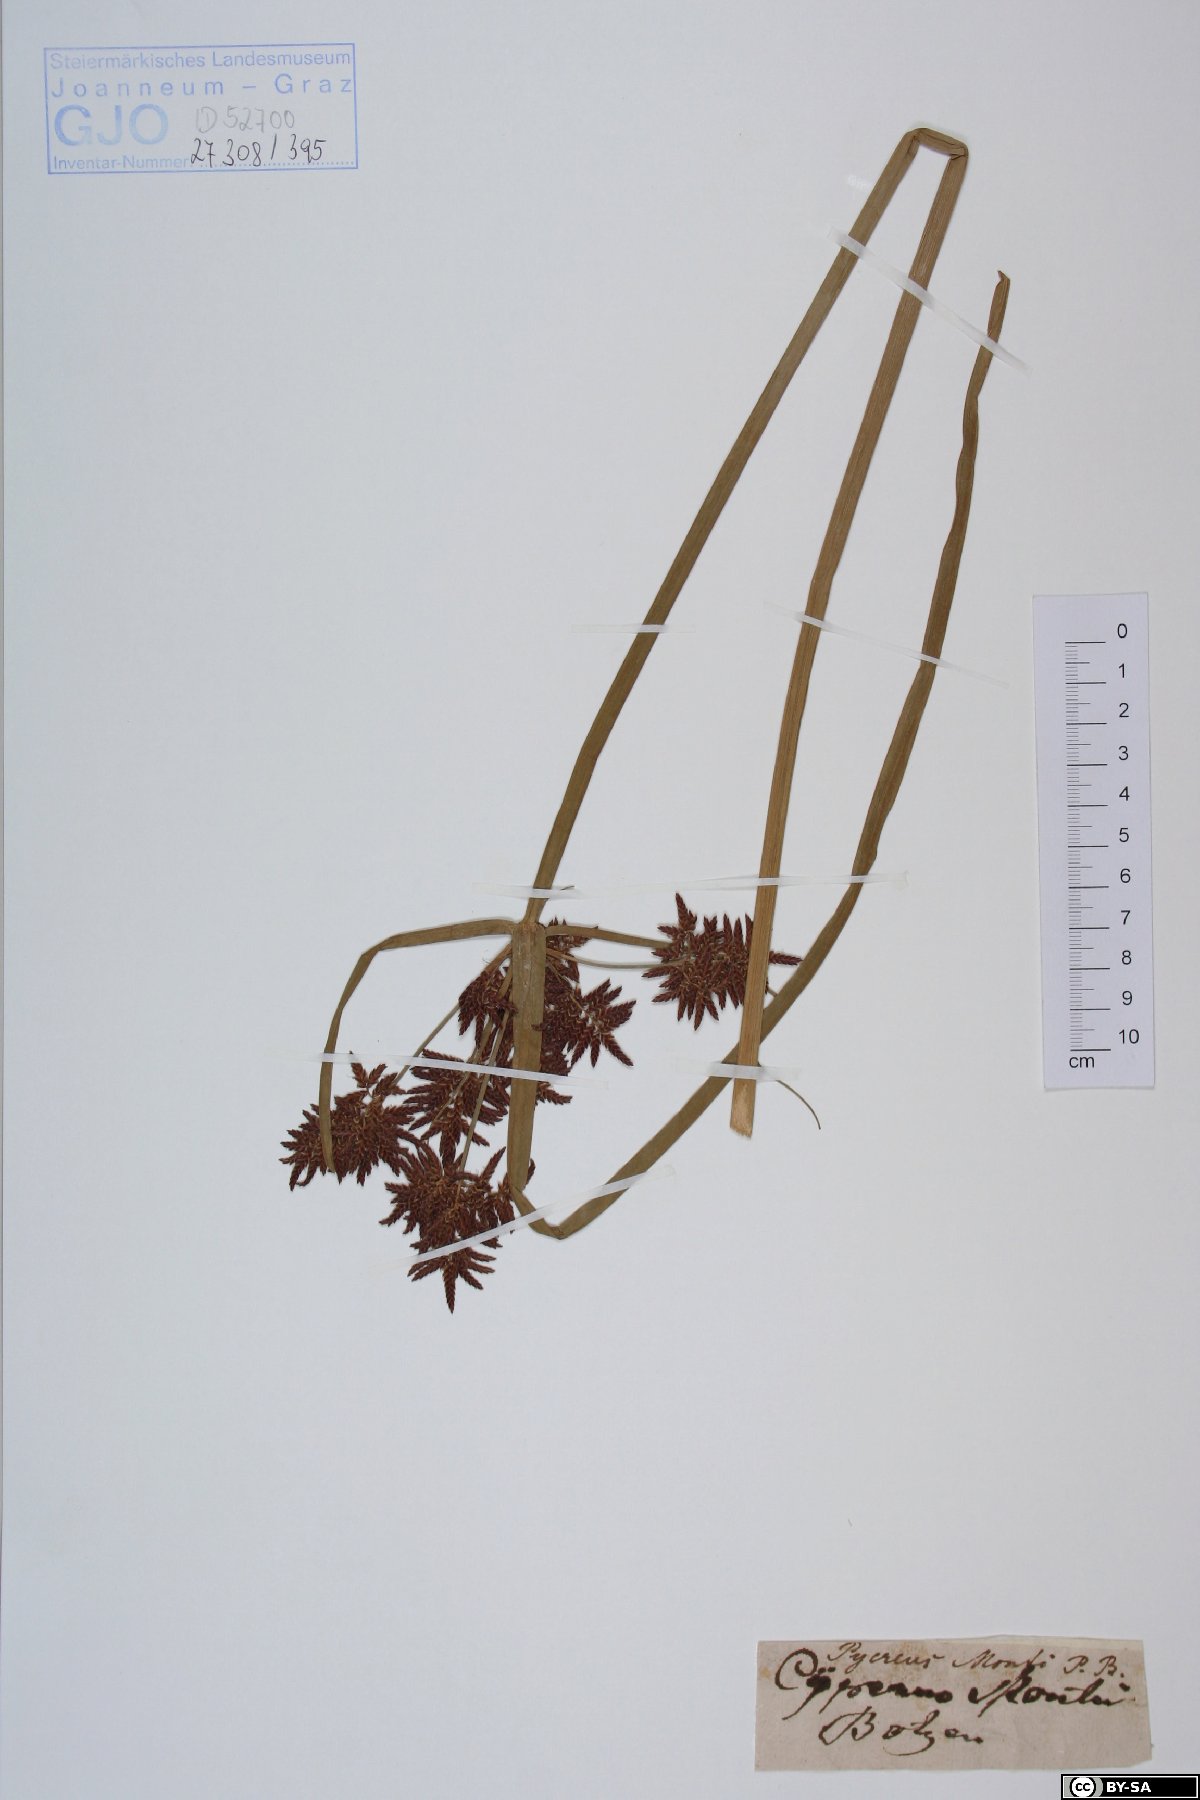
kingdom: Plantae
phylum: Tracheophyta
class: Liliopsida
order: Poales
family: Cyperaceae
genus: Cyperus
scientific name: Cyperus serotinus
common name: Tidalmarsh flatsedge
